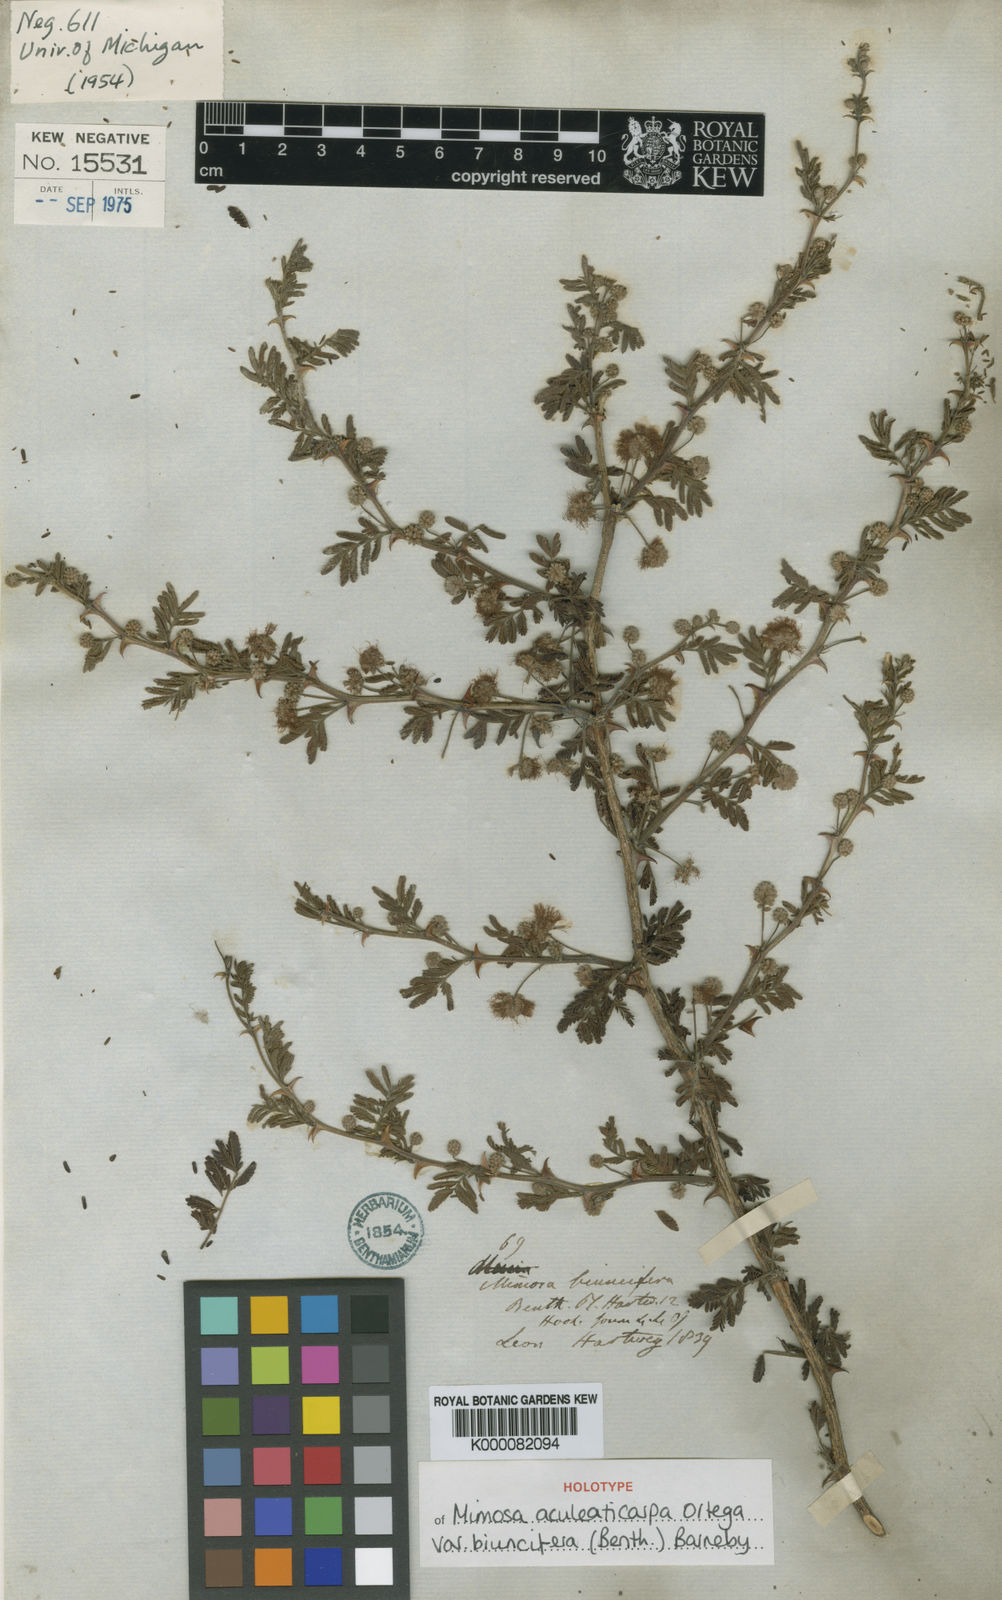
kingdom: Plantae
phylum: Tracheophyta
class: Magnoliopsida
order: Fabales
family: Fabaceae
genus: Mimosa
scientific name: Mimosa biuncifera
